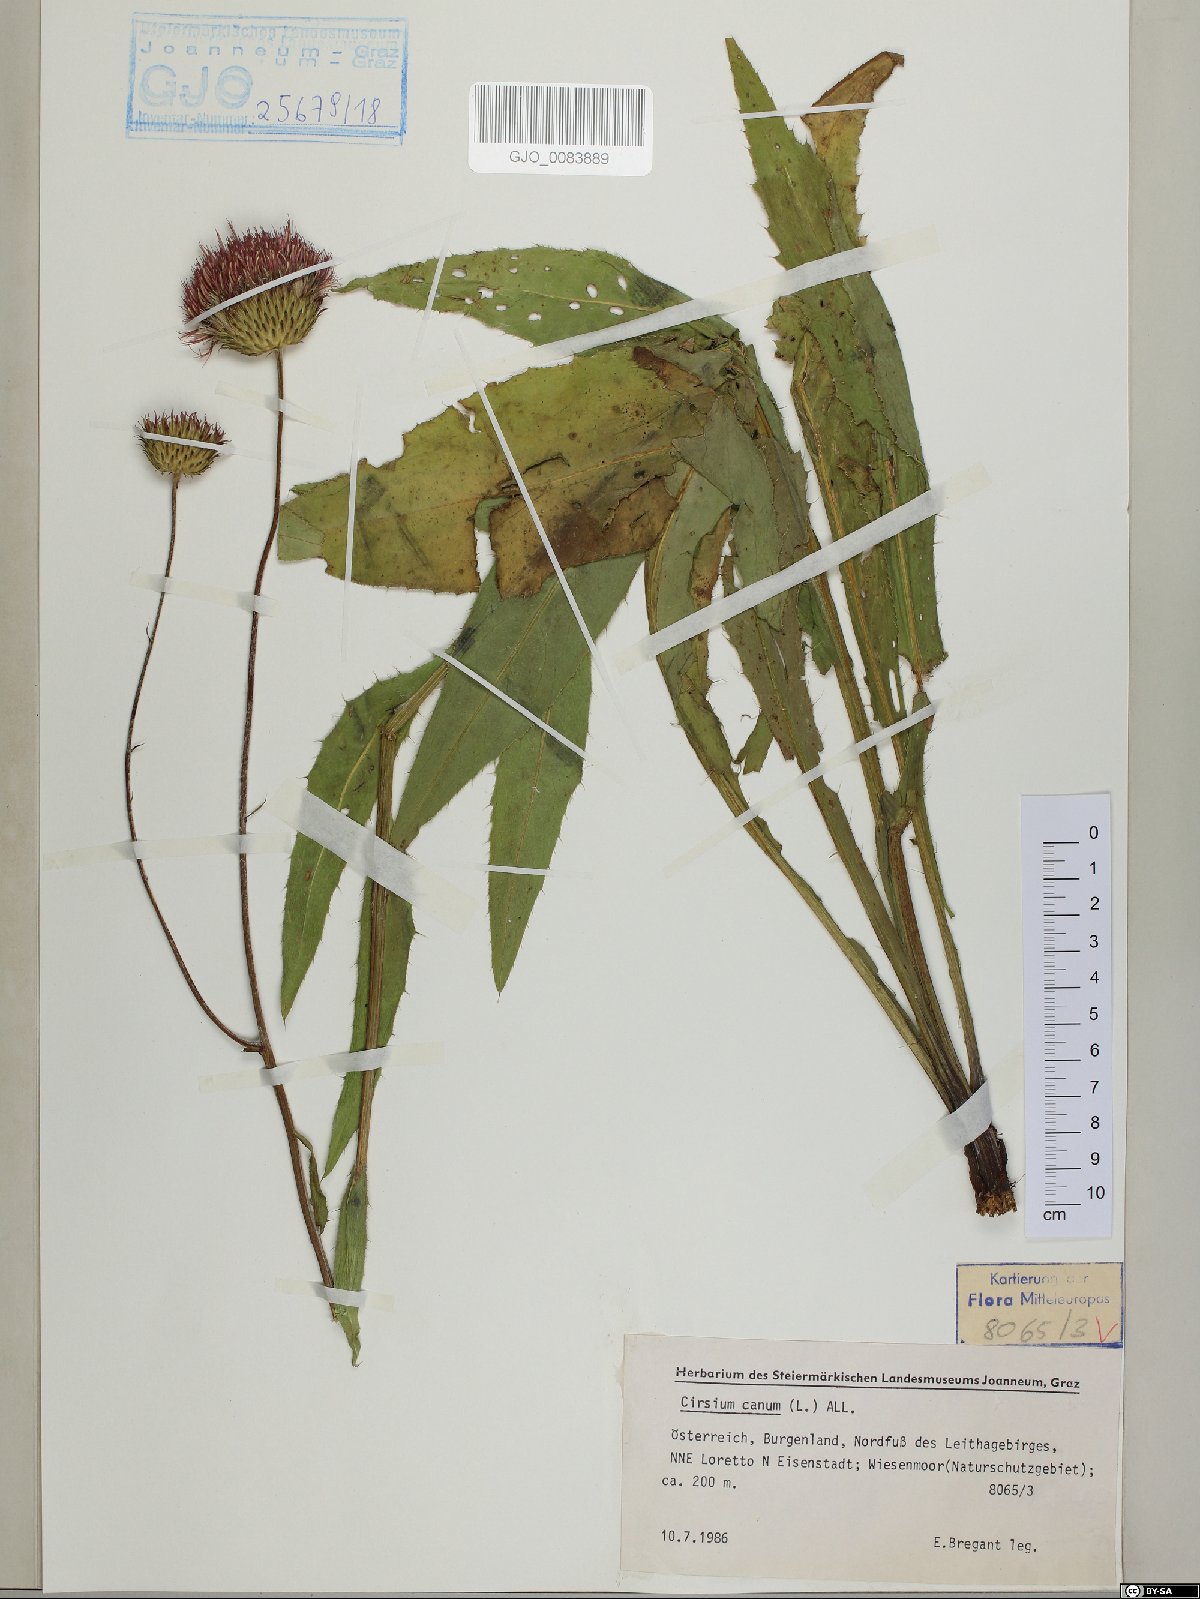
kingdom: Plantae
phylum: Tracheophyta
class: Magnoliopsida
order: Asterales
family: Asteraceae
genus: Cirsium
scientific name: Cirsium canum
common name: Queen anne's thistle
